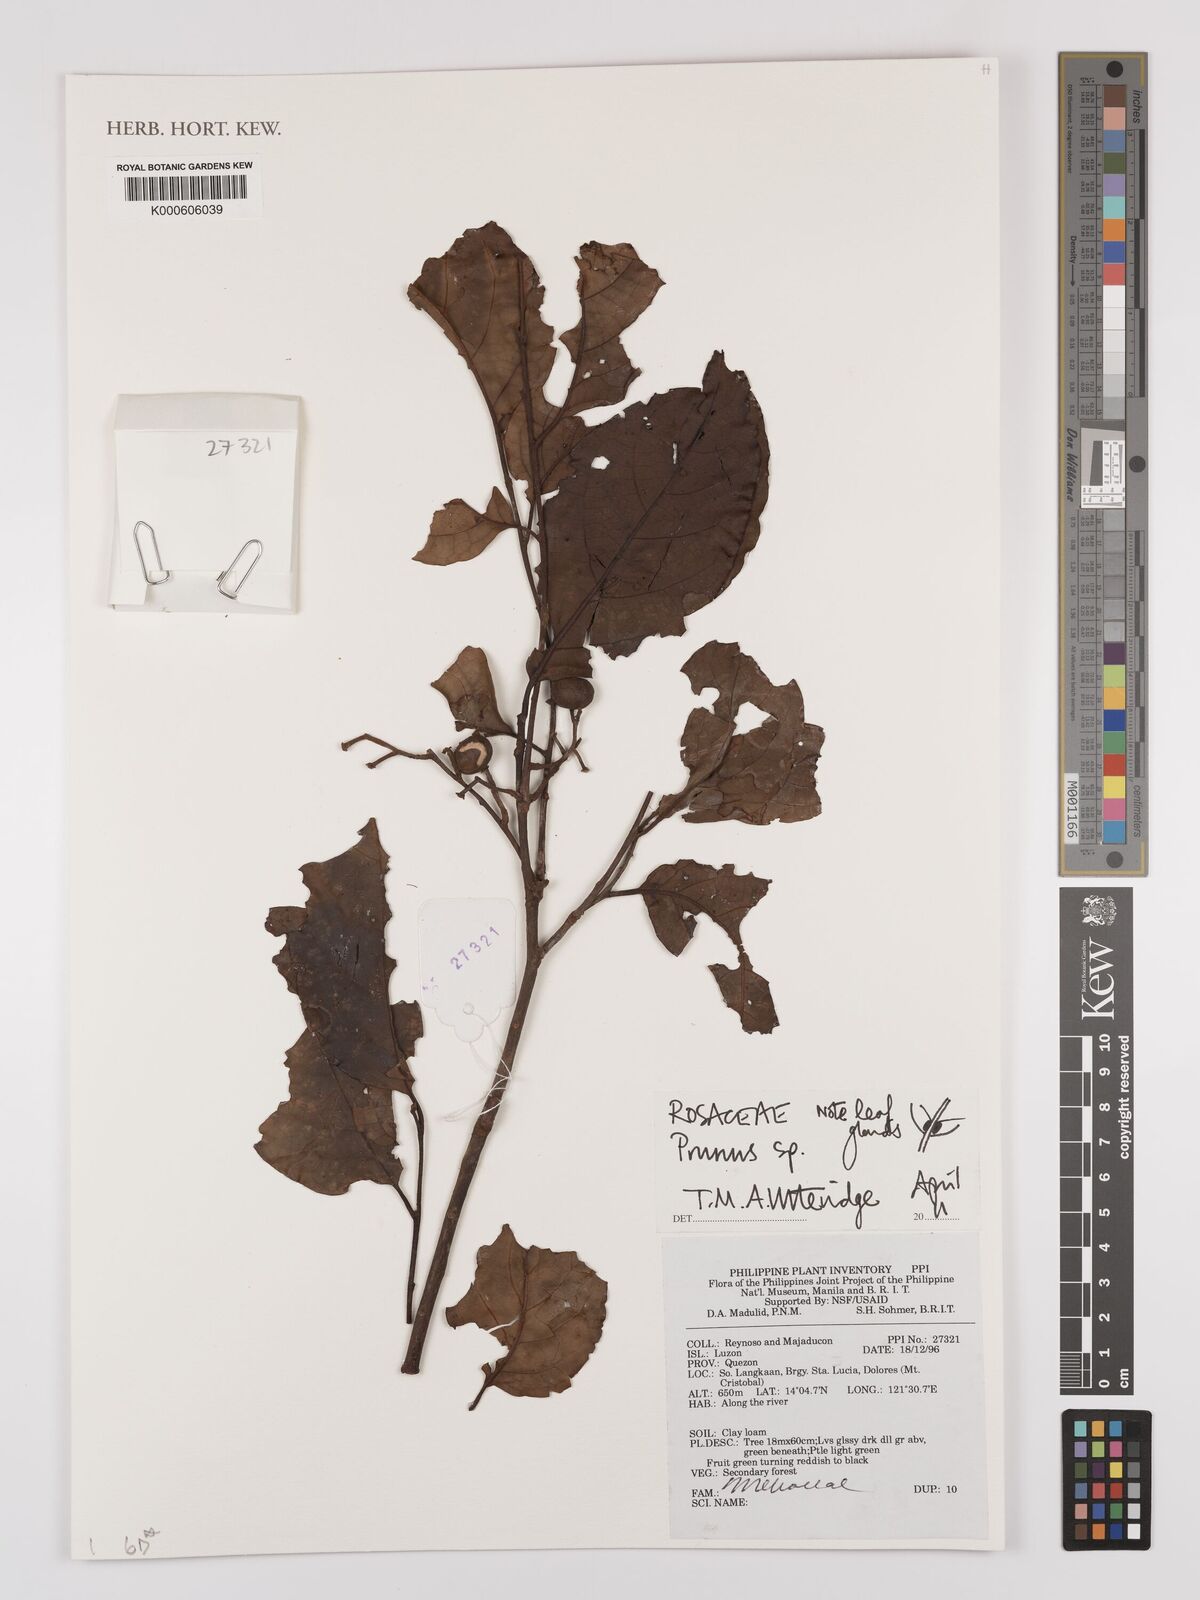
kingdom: Plantae
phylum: Tracheophyta
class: Magnoliopsida
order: Rosales
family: Rosaceae
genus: Prunus
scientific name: Prunus
